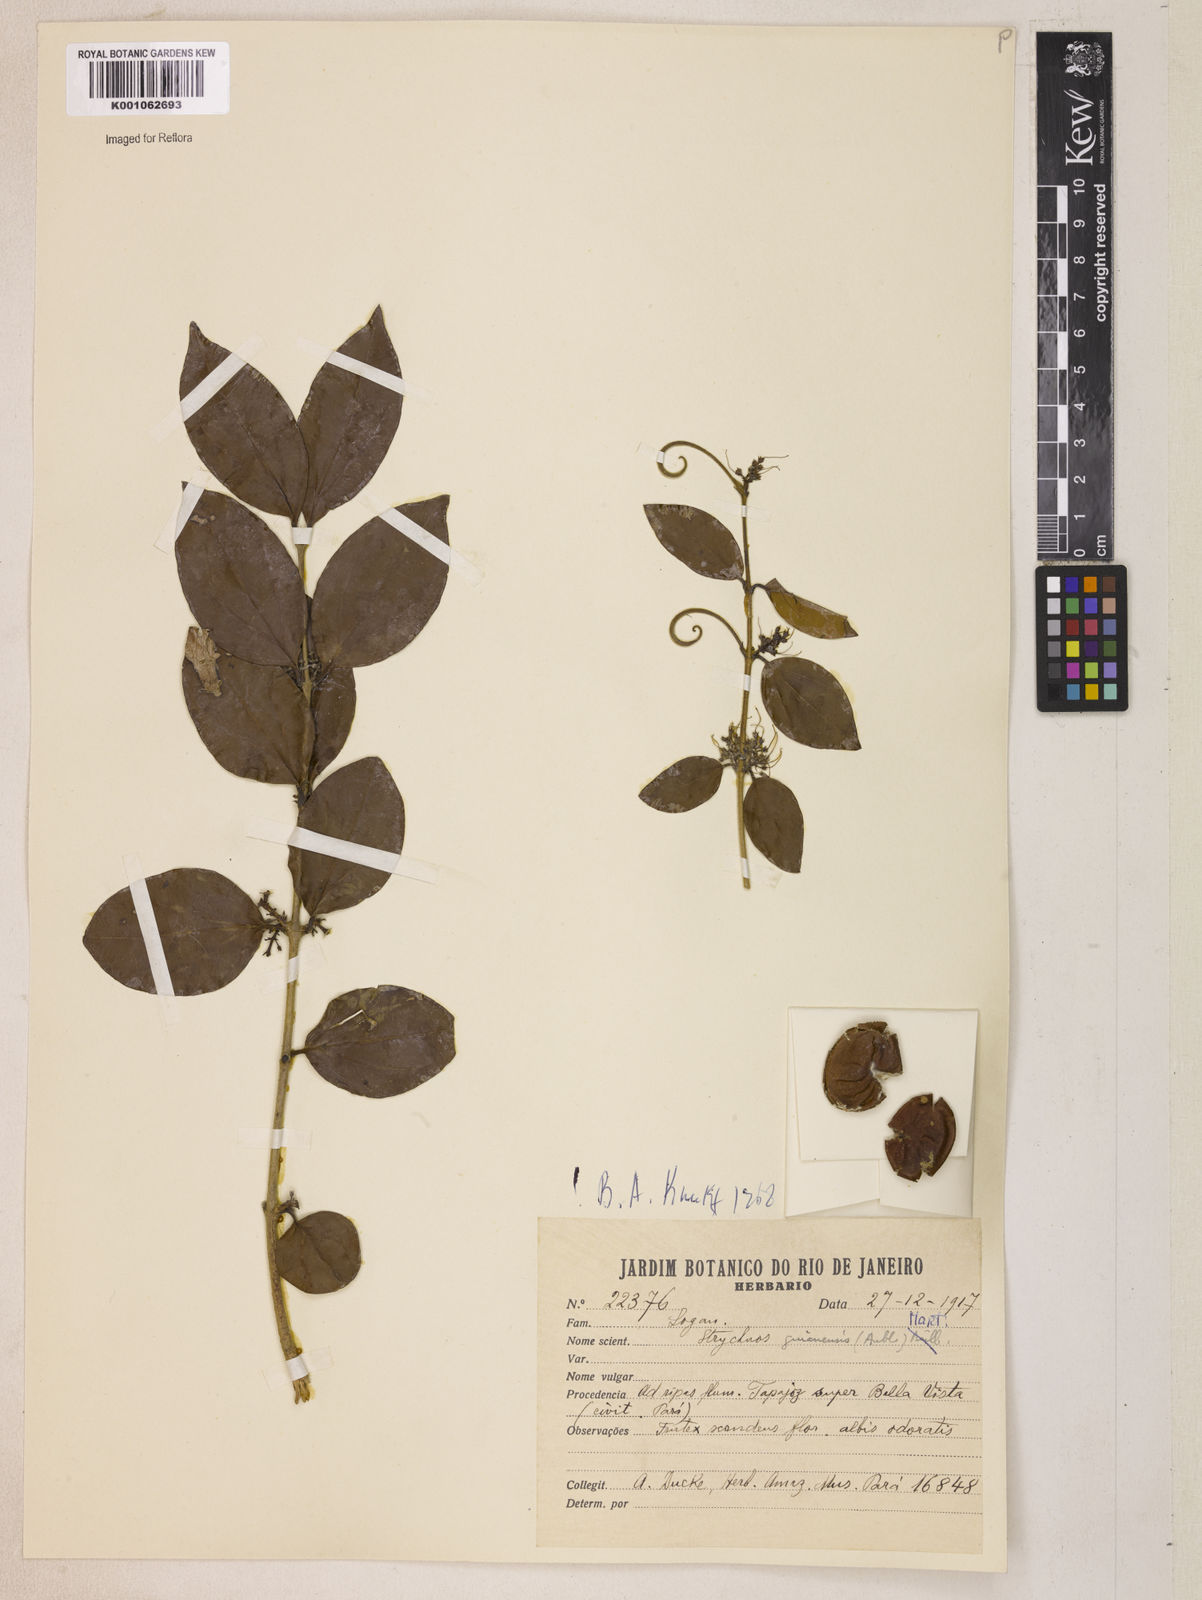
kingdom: Plantae
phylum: Tracheophyta
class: Magnoliopsida
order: Gentianales
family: Loganiaceae
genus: Strychnos
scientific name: Strychnos guianensis
